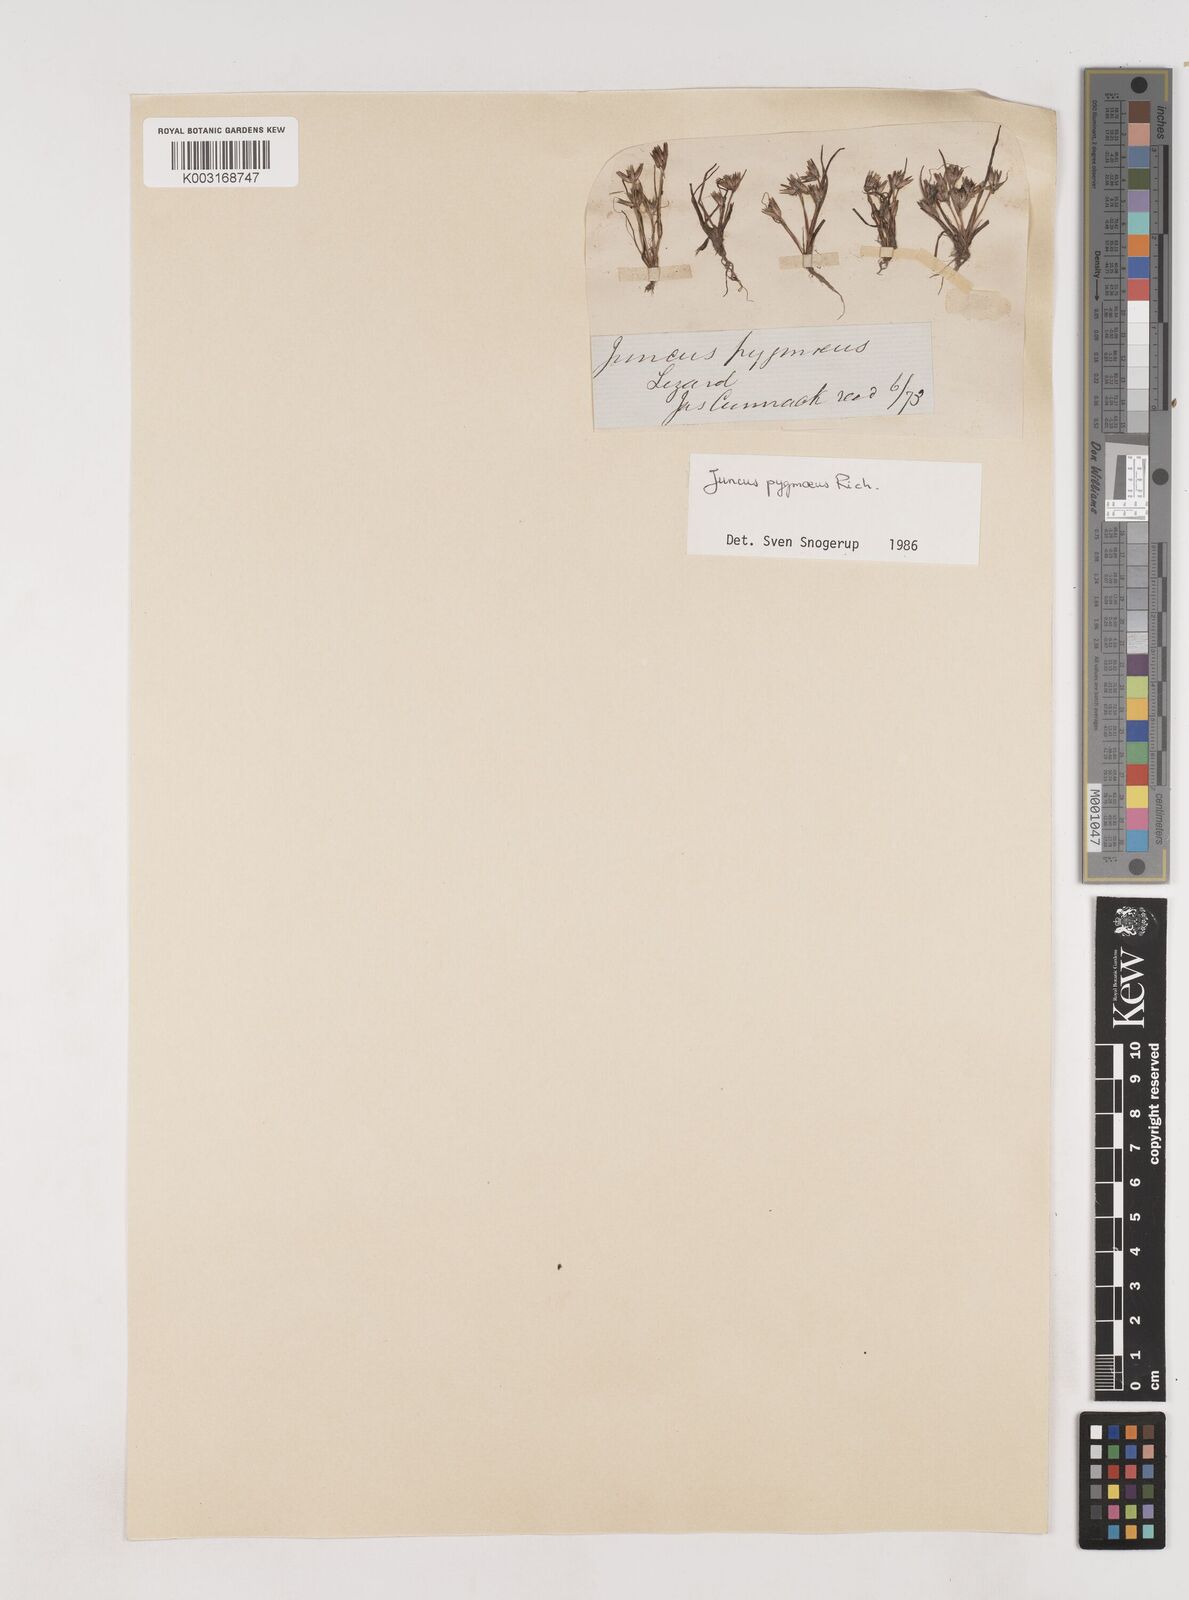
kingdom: Plantae
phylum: Tracheophyta
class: Liliopsida
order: Poales
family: Juncaceae
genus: Juncus
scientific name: Juncus pygmaeus
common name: Pigmy rush
